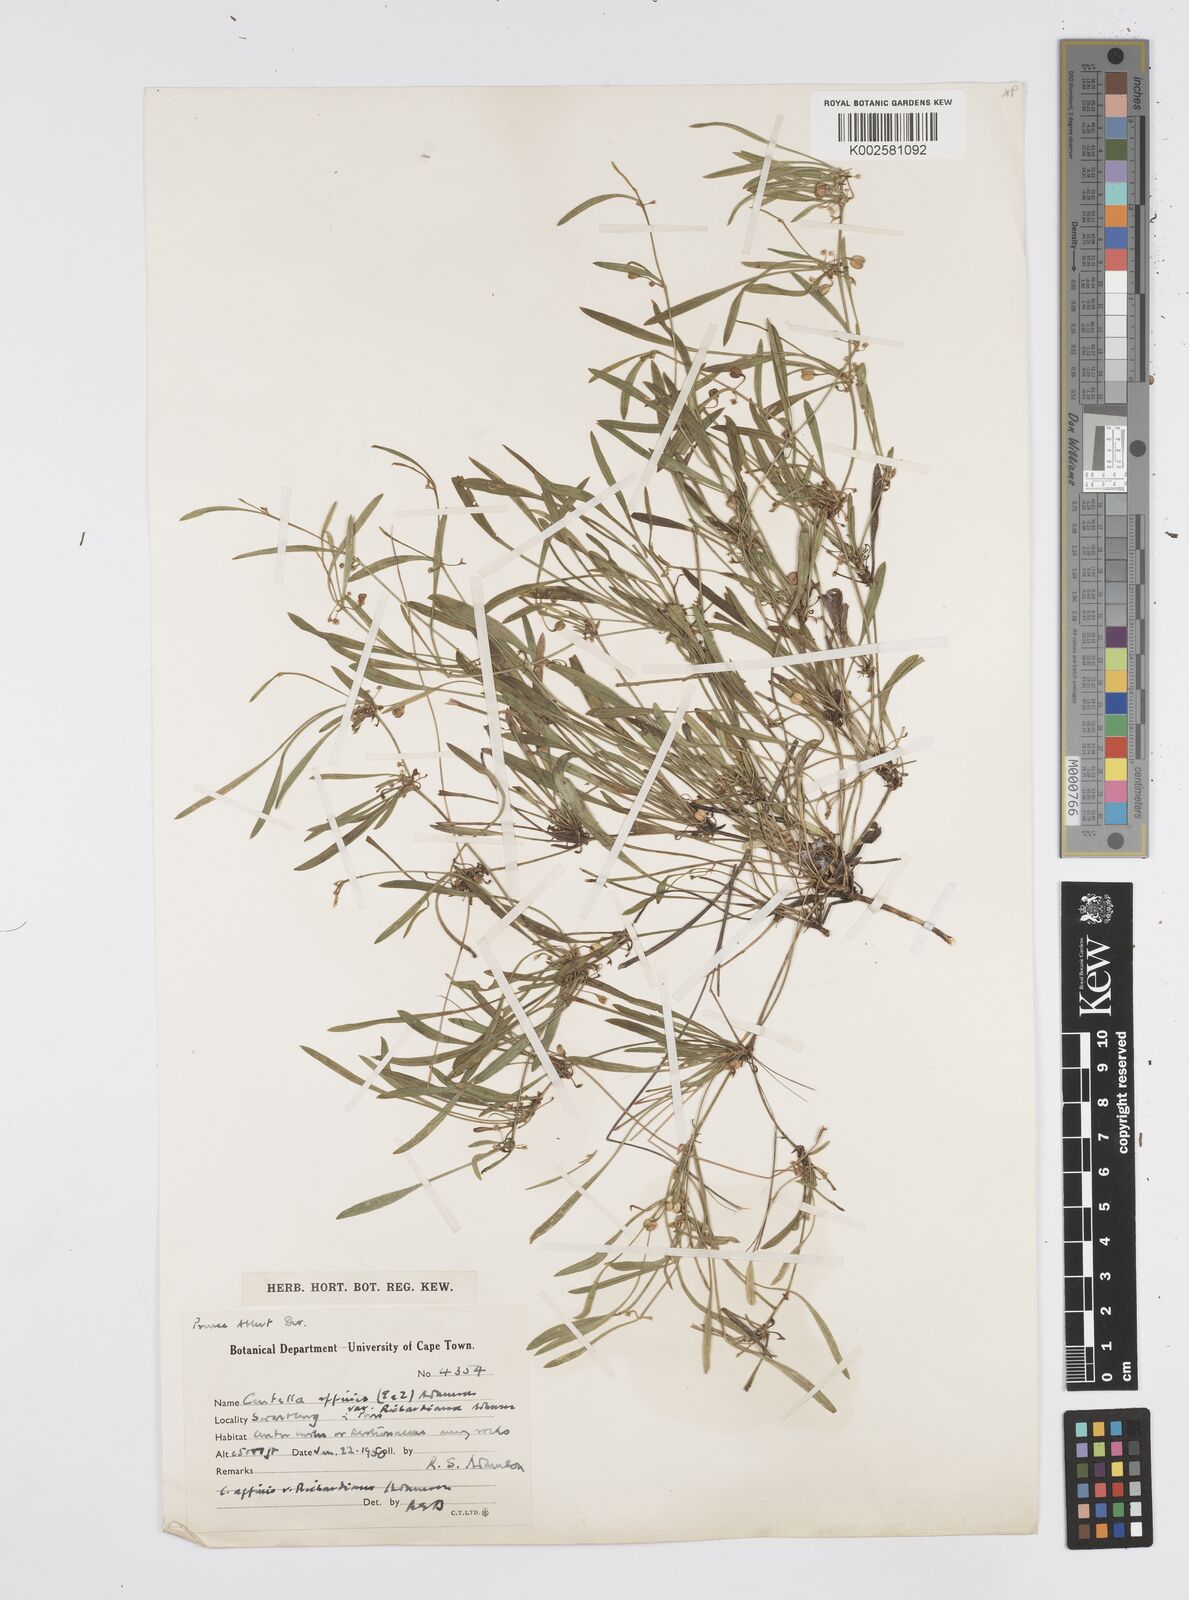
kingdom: Plantae
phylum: Tracheophyta
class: Magnoliopsida
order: Apiales
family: Apiaceae
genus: Centella
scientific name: Centella affinis
